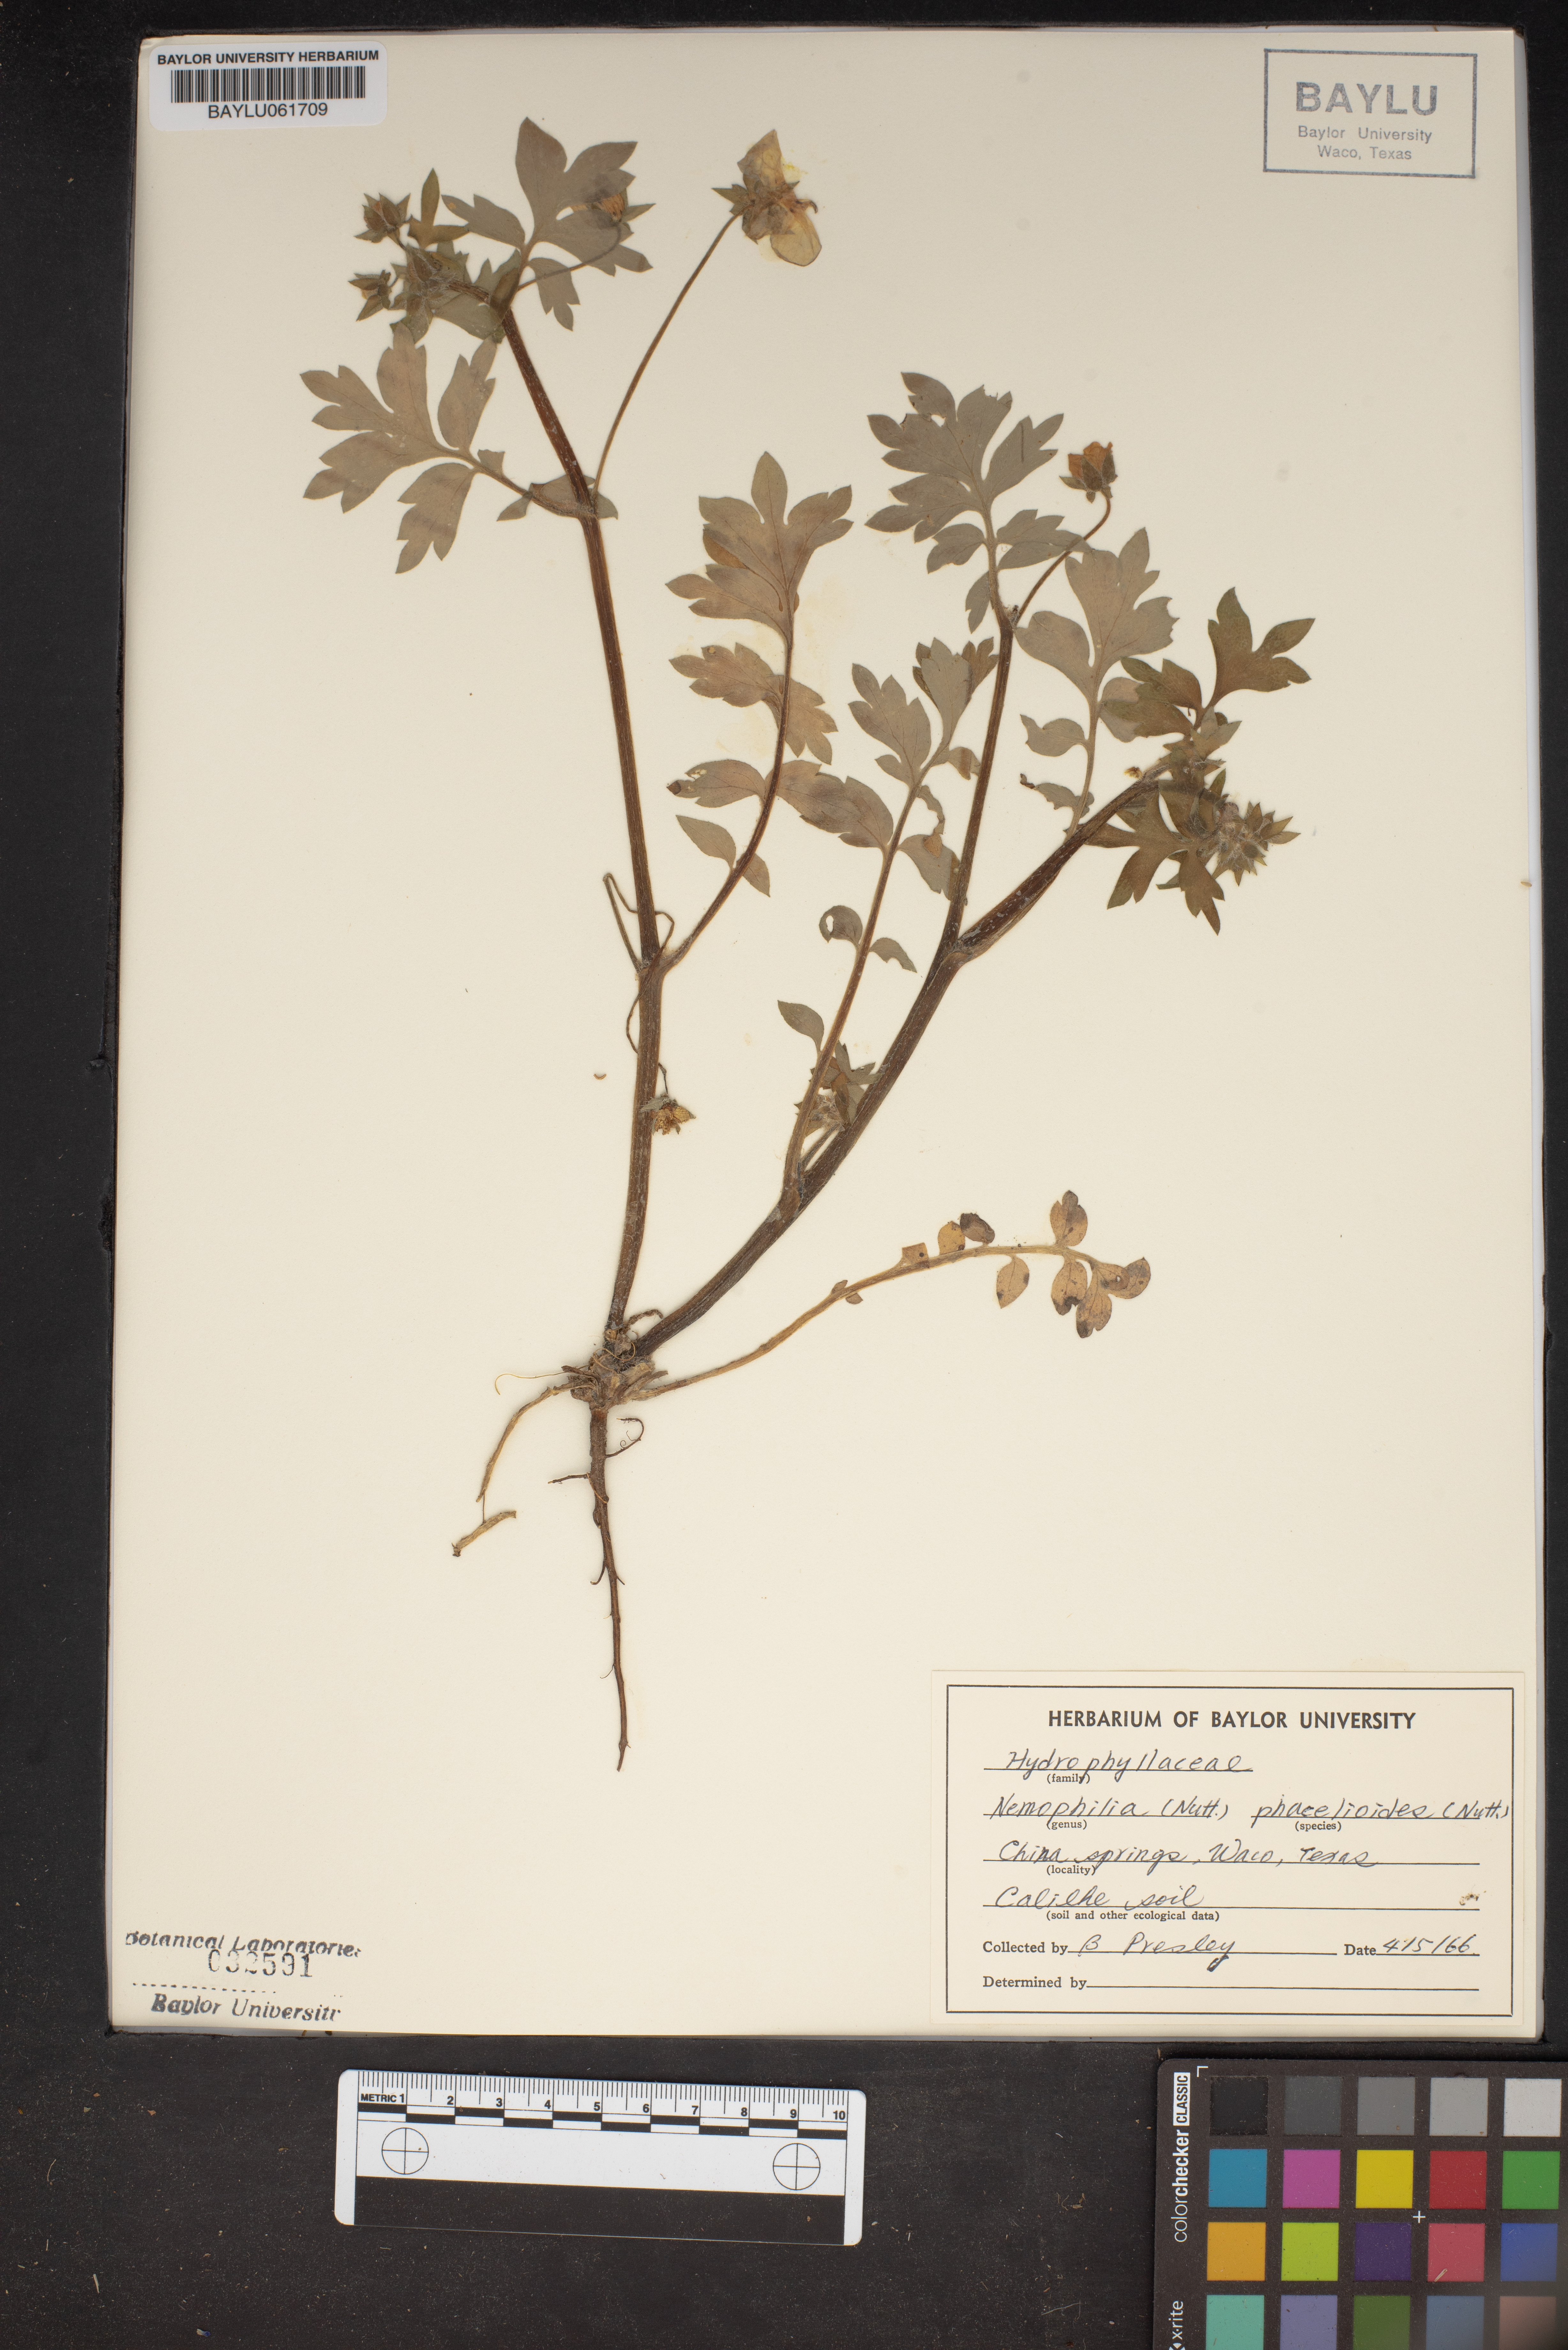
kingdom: Plantae
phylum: Tracheophyta
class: Magnoliopsida
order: Boraginales
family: Hydrophyllaceae
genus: Nemophila
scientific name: Nemophila phacelioides
